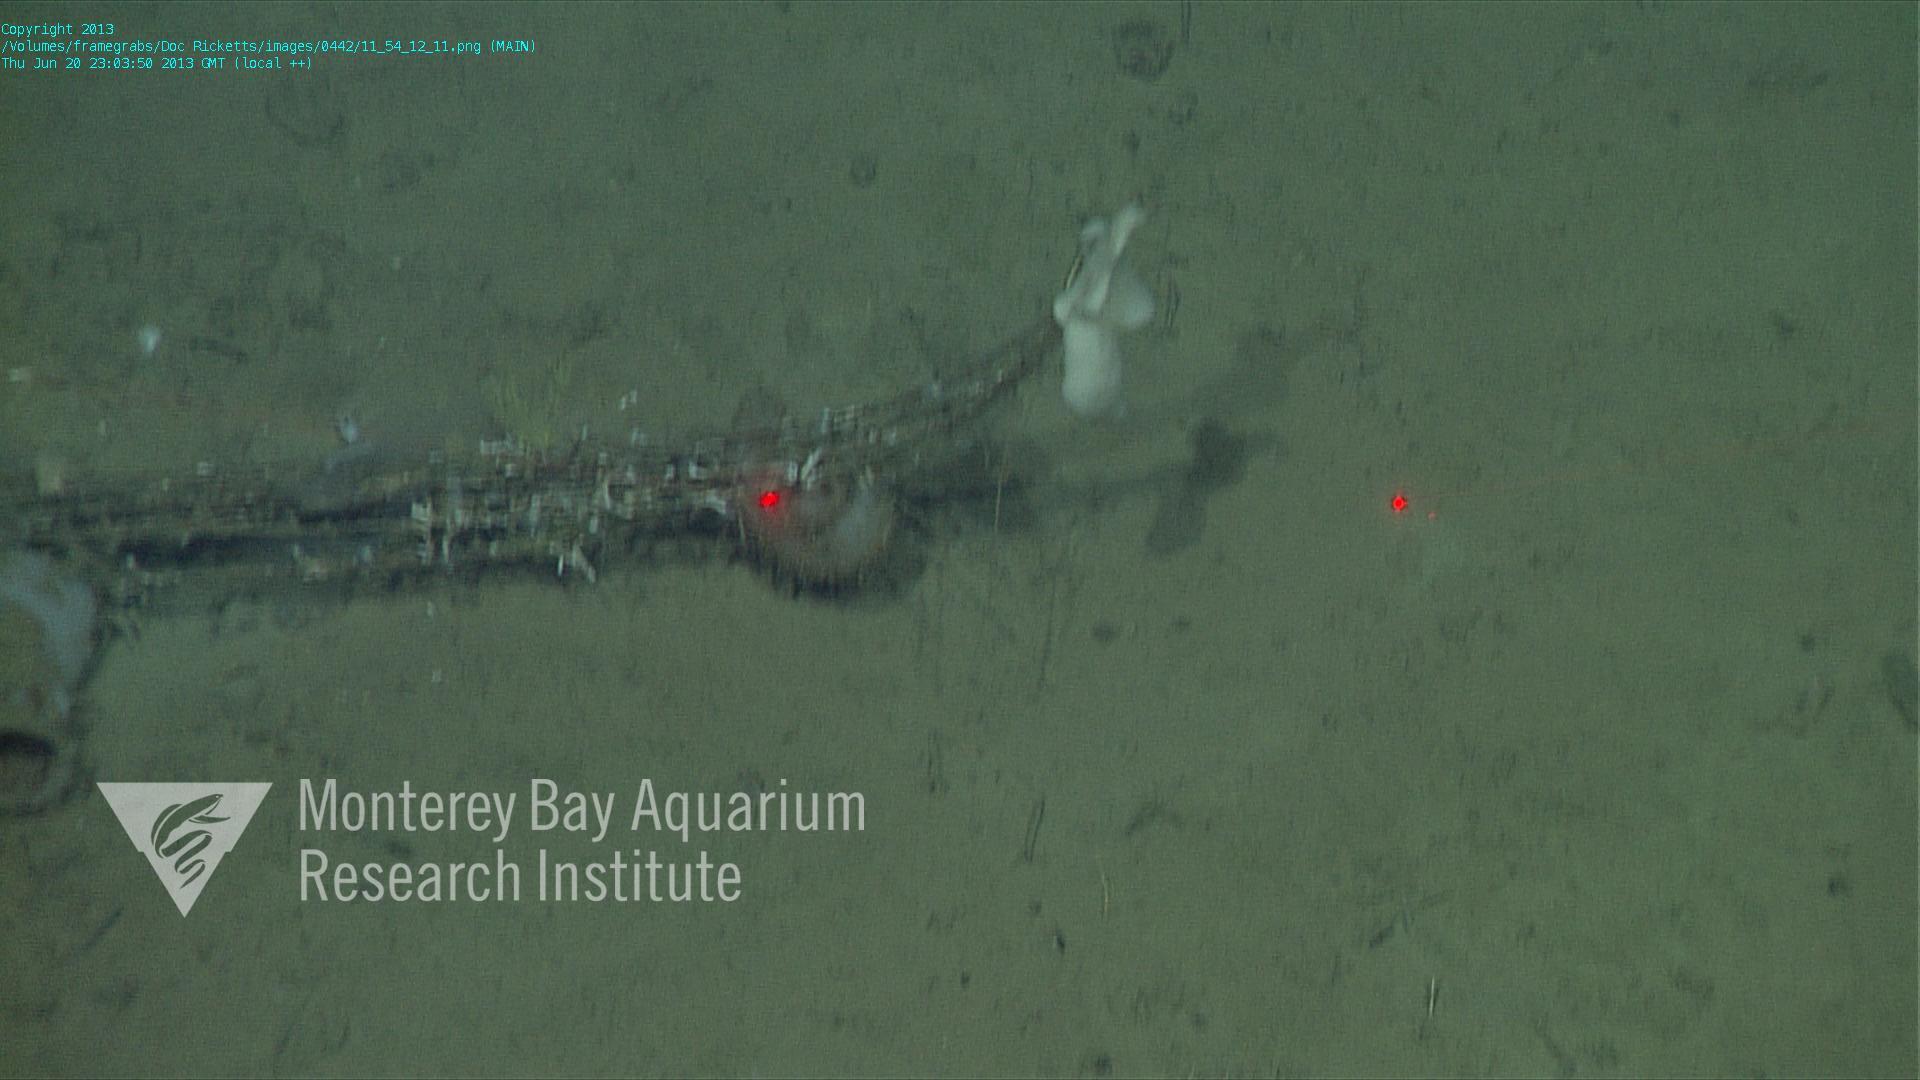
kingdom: Animalia
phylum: Porifera
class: Hexactinellida
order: Lyssacinosida
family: Rossellidae
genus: Bathydorus
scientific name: Bathydorus spinosus
